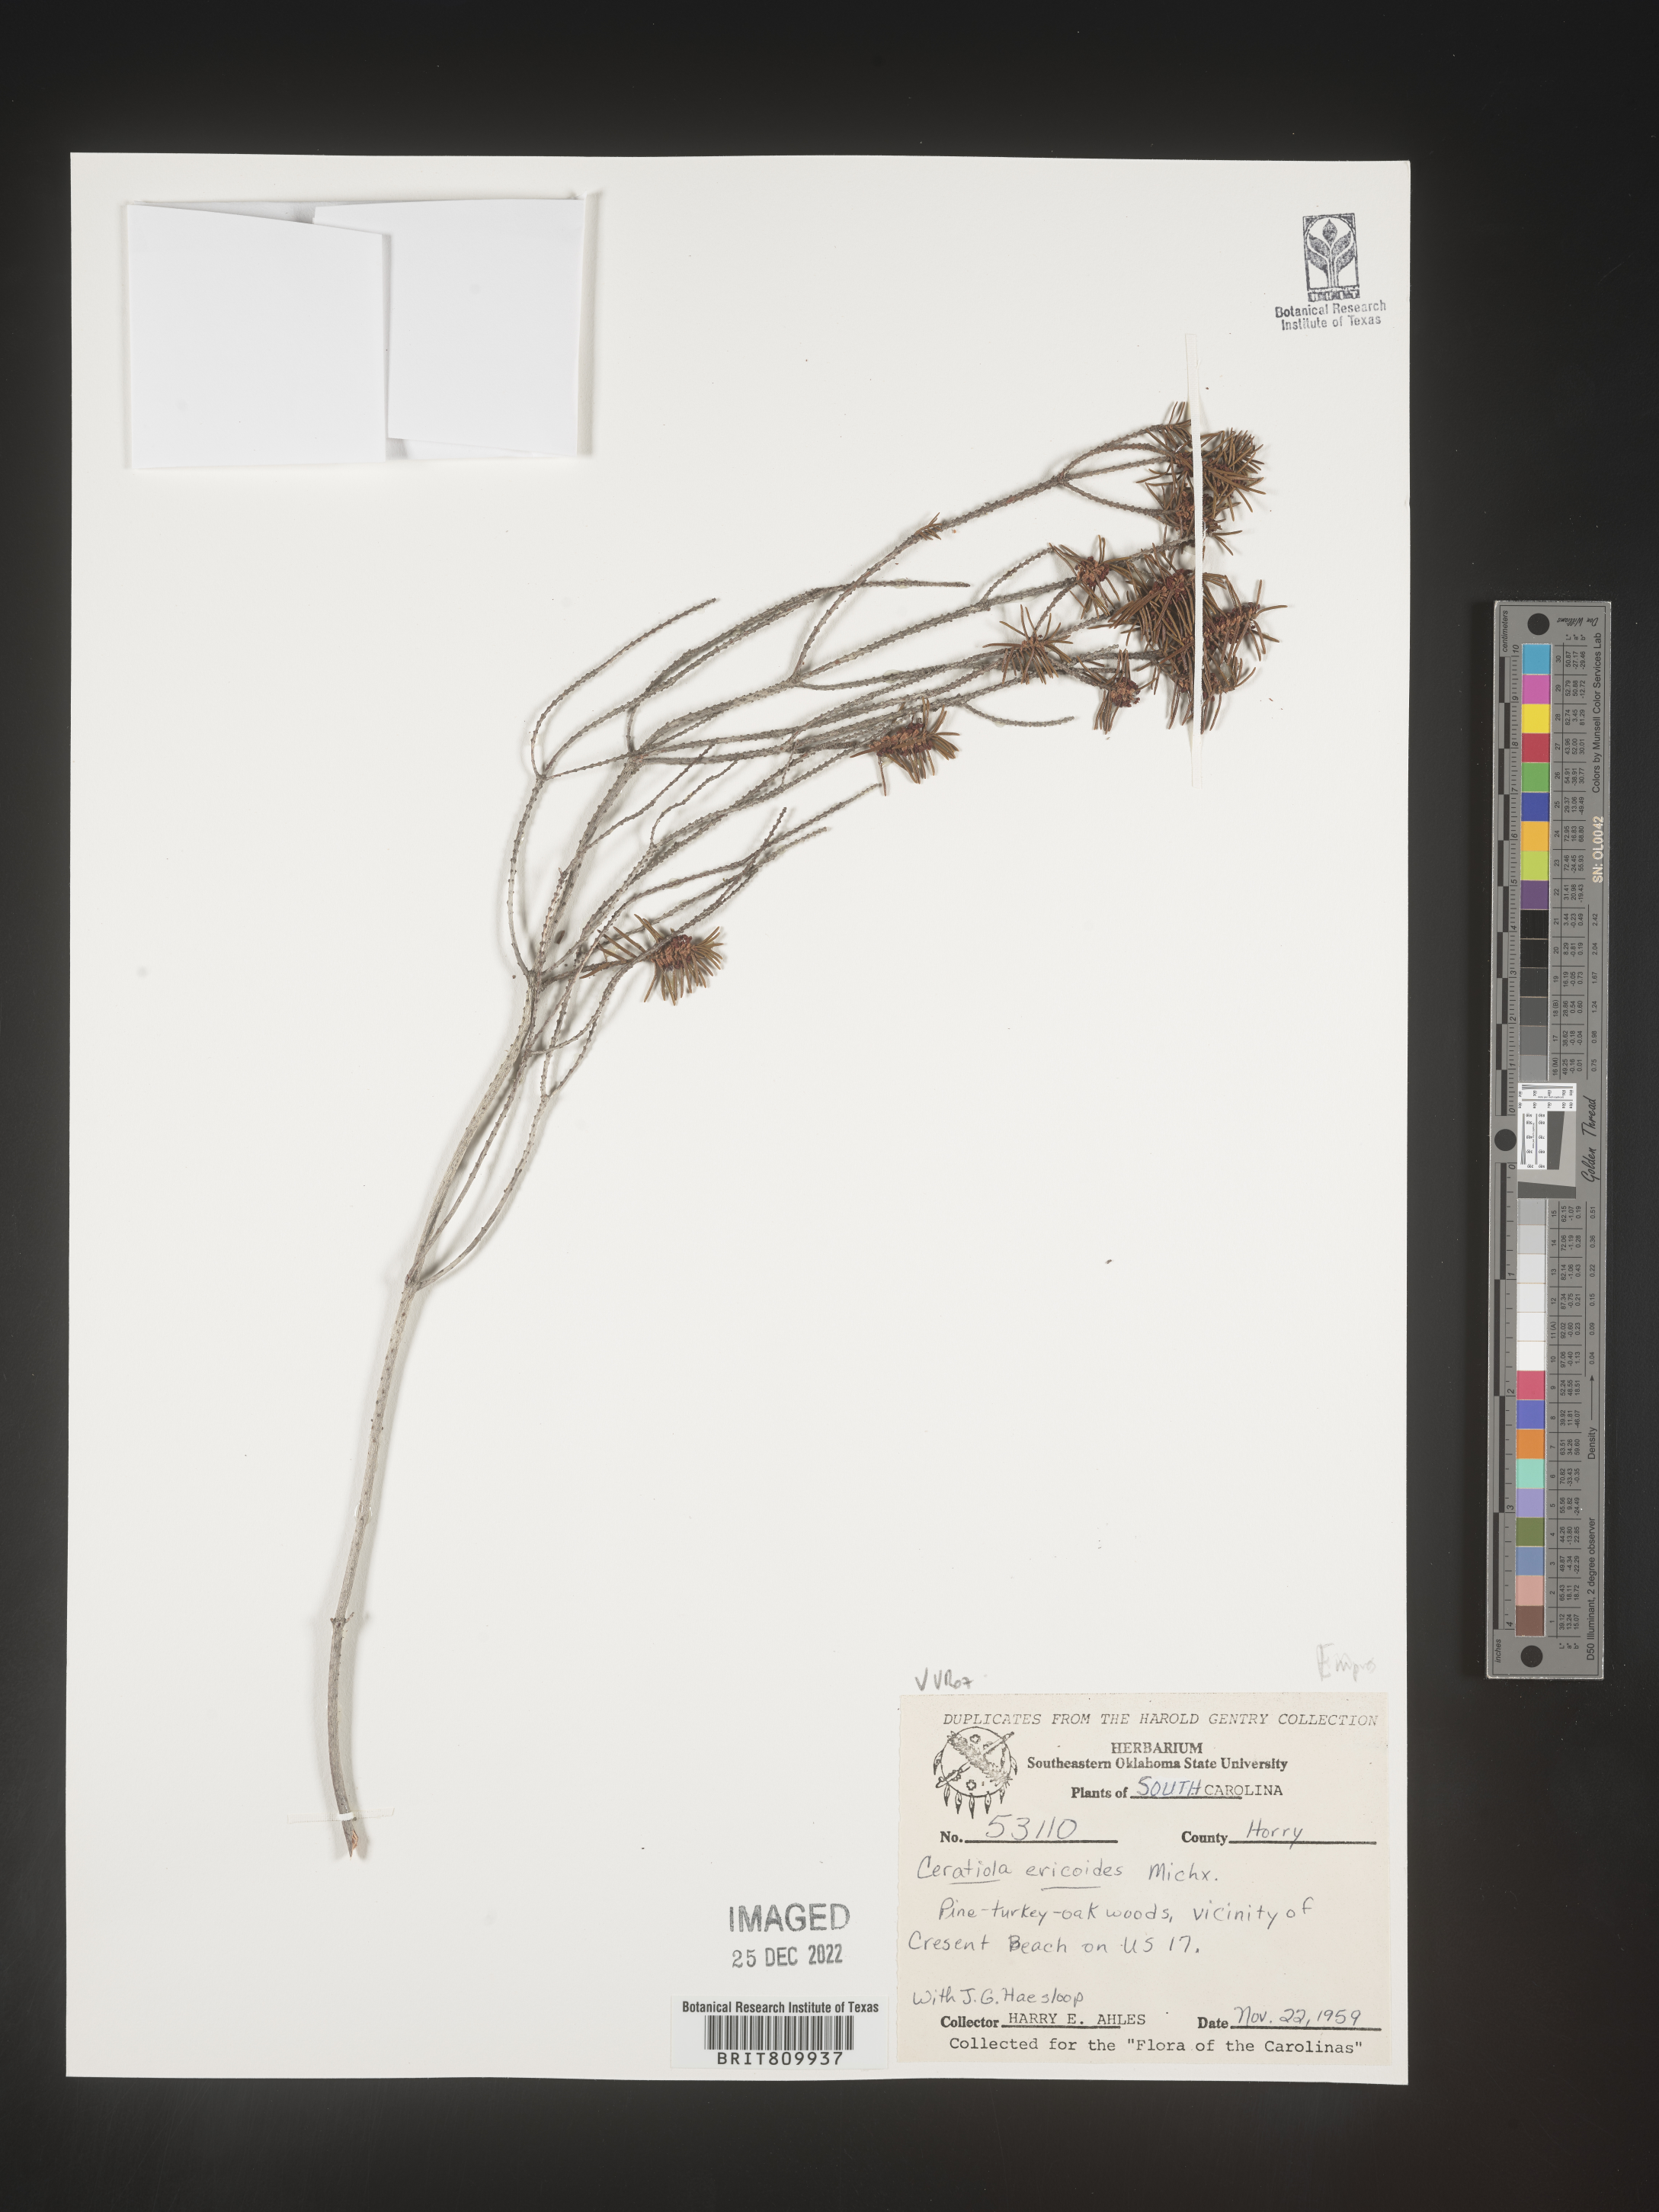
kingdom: Plantae
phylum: Tracheophyta
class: Magnoliopsida
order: Ericales
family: Ericaceae
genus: Ceratiola
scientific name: Ceratiola ericoides
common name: Sandhill-rosemary
